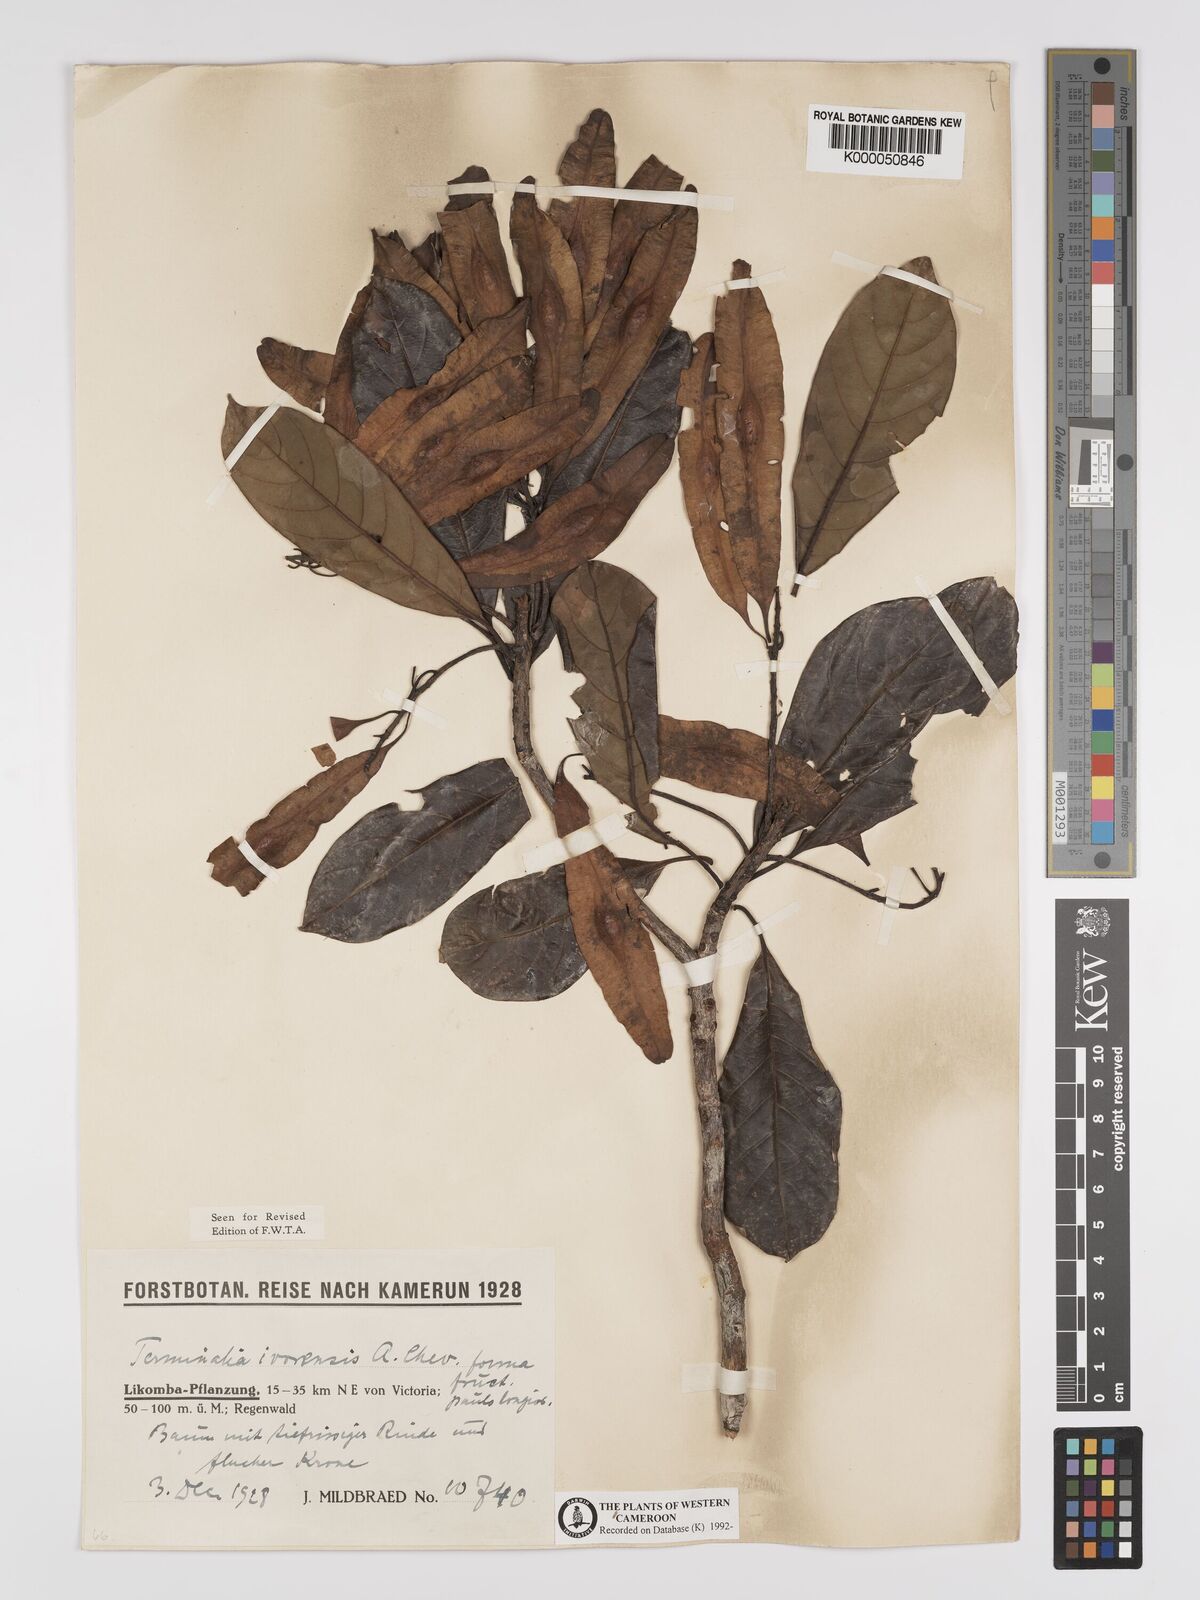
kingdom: Plantae
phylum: Tracheophyta
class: Magnoliopsida
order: Myrtales
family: Combretaceae
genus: Terminalia
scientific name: Terminalia ivorensis
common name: Black afara
